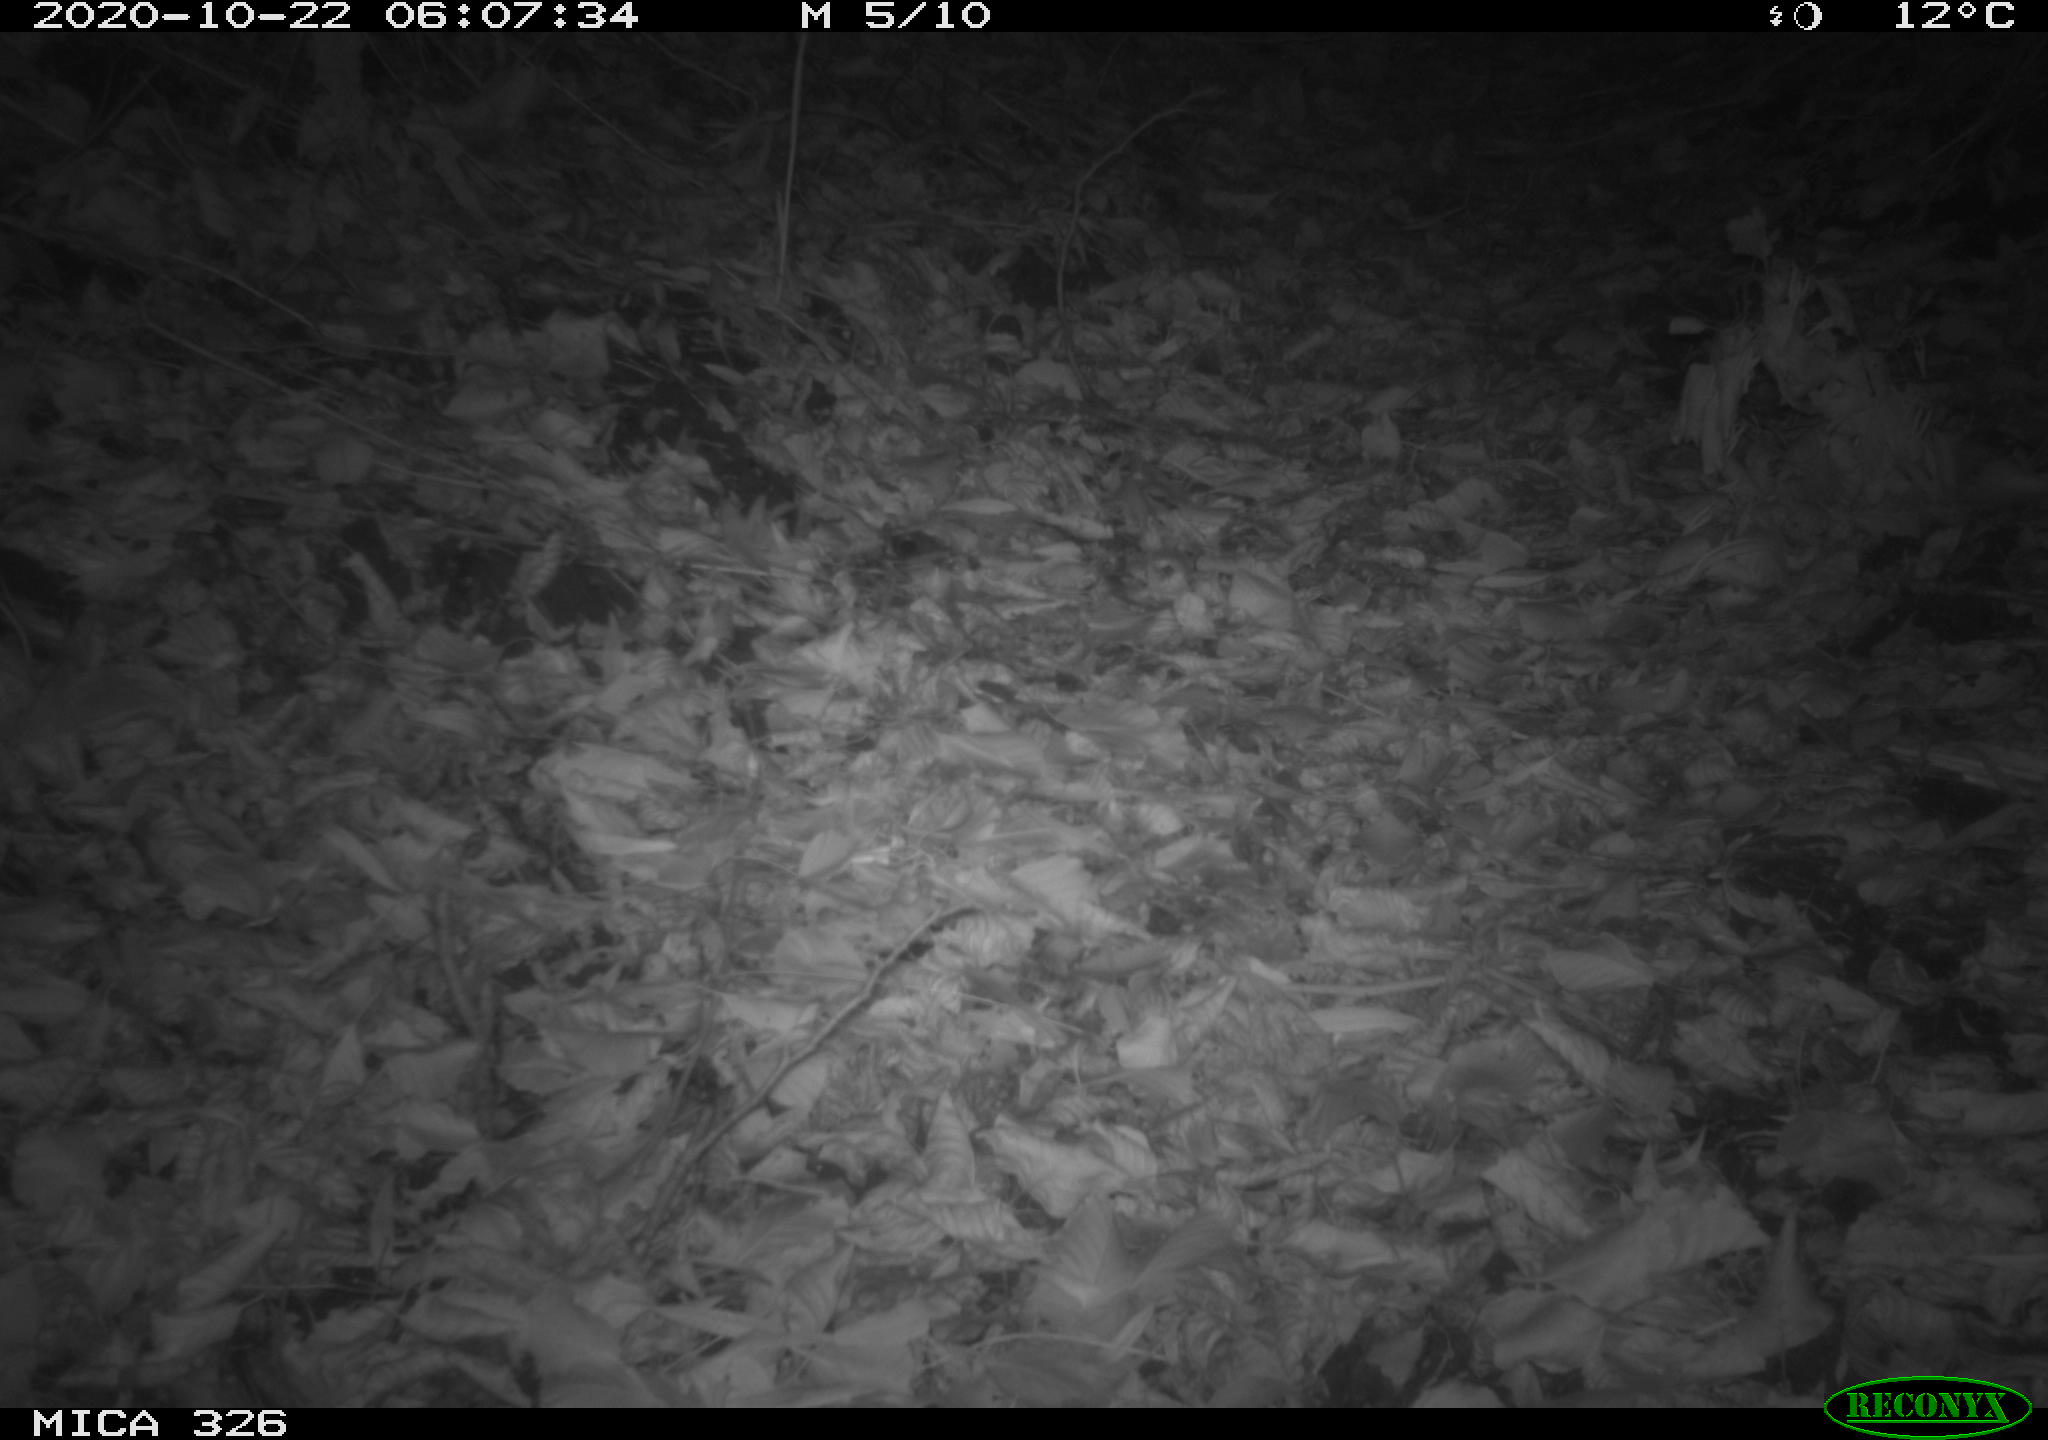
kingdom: Animalia
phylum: Chordata
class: Mammalia
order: Carnivora
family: Mustelidae
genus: Lutra
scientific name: Lutra lutra
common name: European otter
